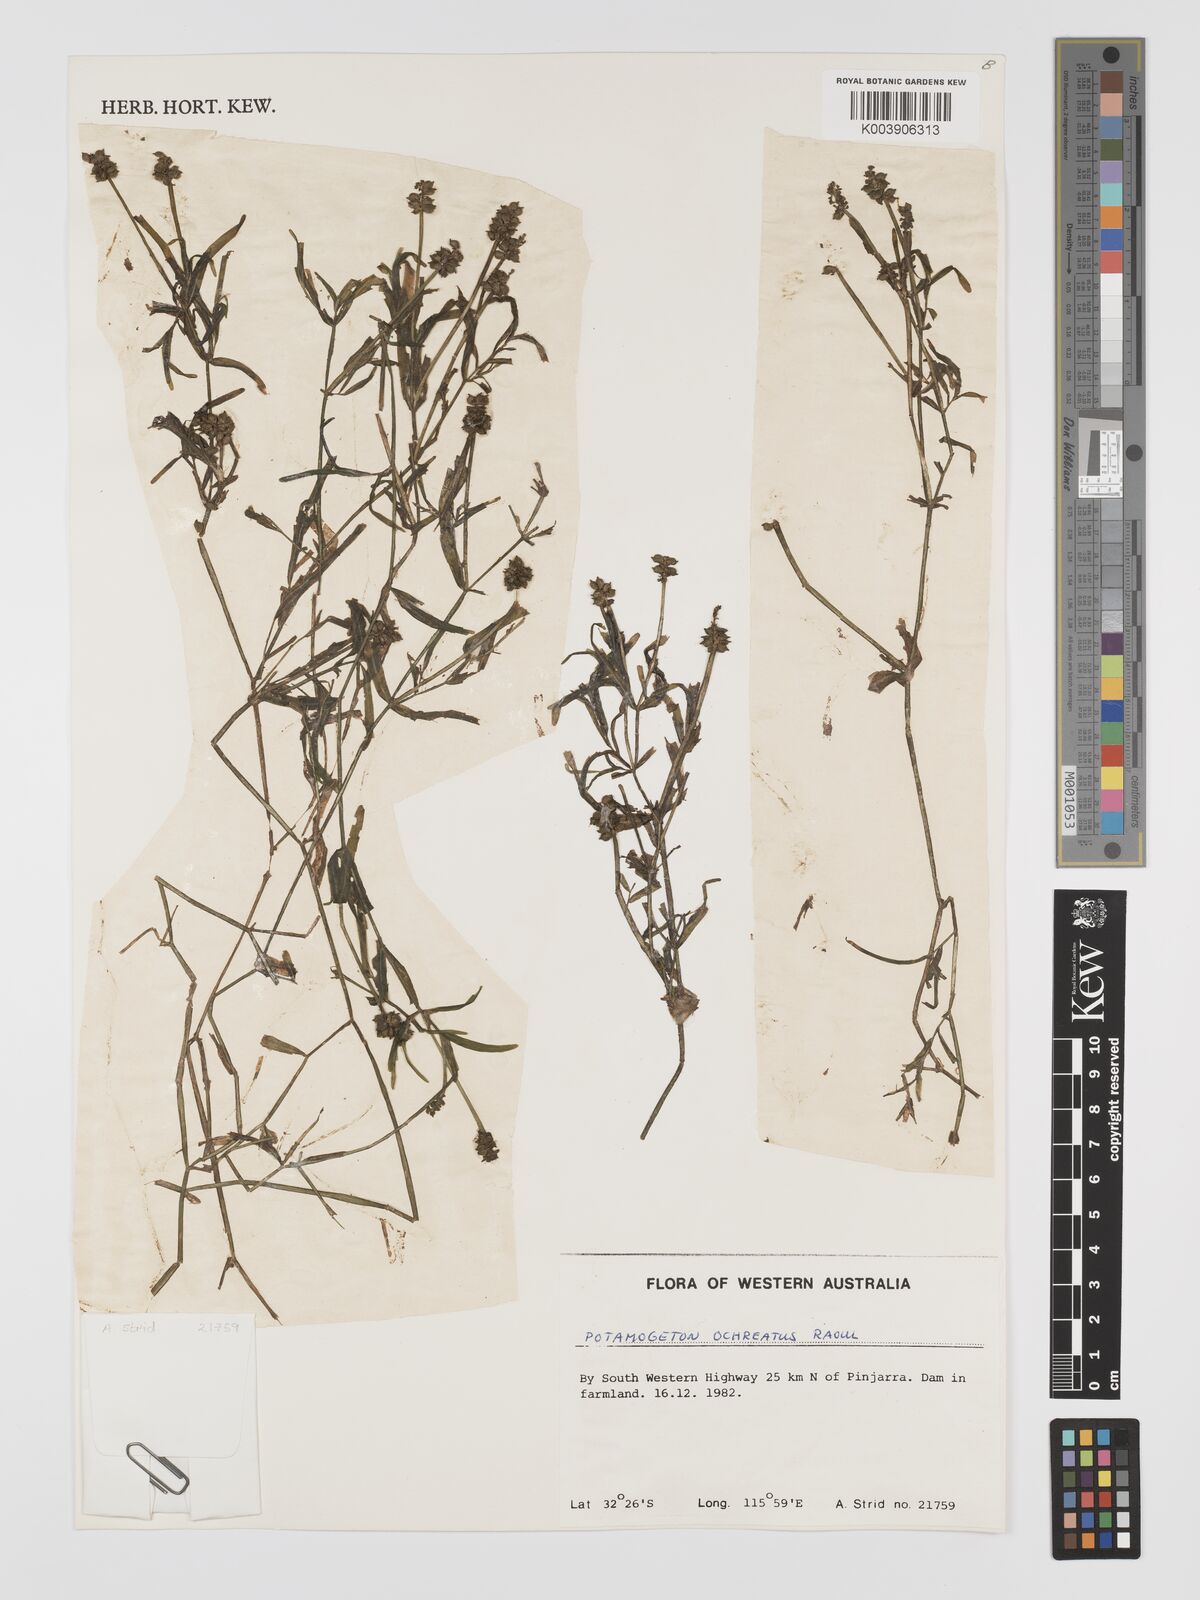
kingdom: Plantae
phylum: Tracheophyta
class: Liliopsida
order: Alismatales
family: Potamogetonaceae
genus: Potamogeton
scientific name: Potamogeton ochreatus
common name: Blunt pondweed
